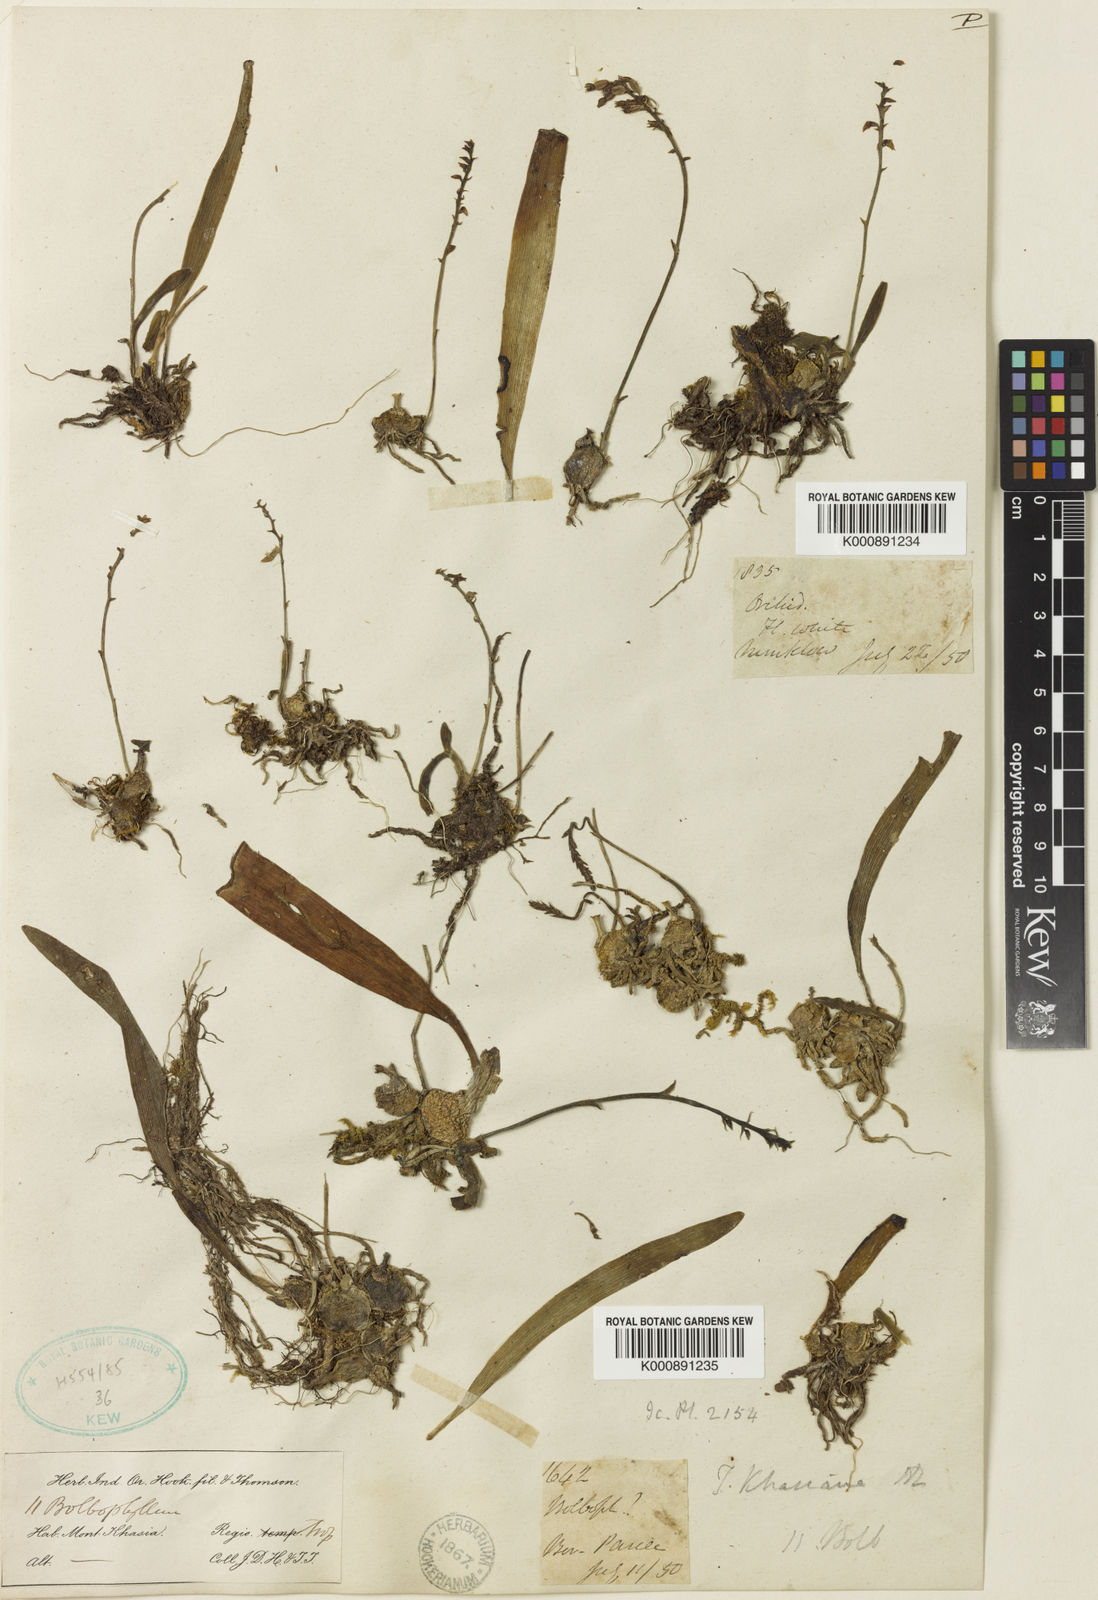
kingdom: Plantae
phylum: Tracheophyta
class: Liliopsida
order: Asparagales
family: Orchidaceae
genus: Thelasis
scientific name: Thelasis khasiana
